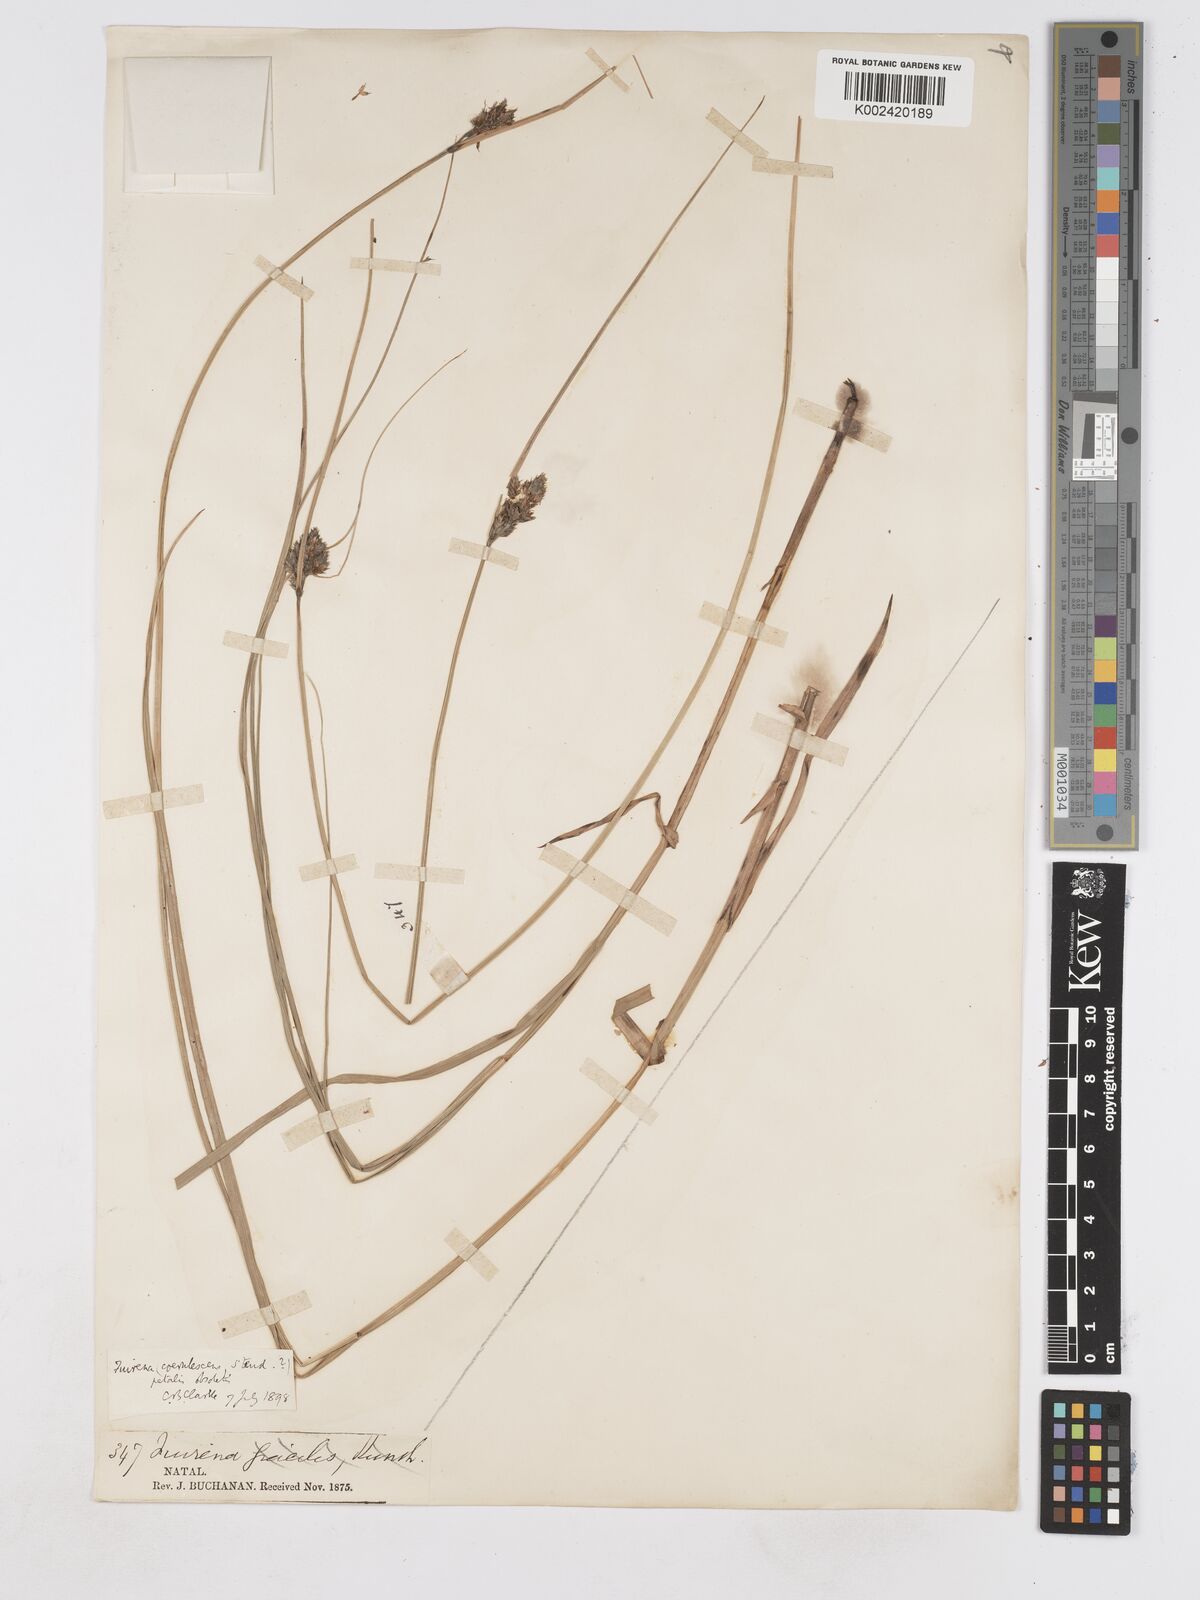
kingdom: Plantae
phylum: Tracheophyta
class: Liliopsida
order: Poales
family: Cyperaceae
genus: Fuirena
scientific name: Fuirena coerulescens
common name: Blue umbrella-sedge
